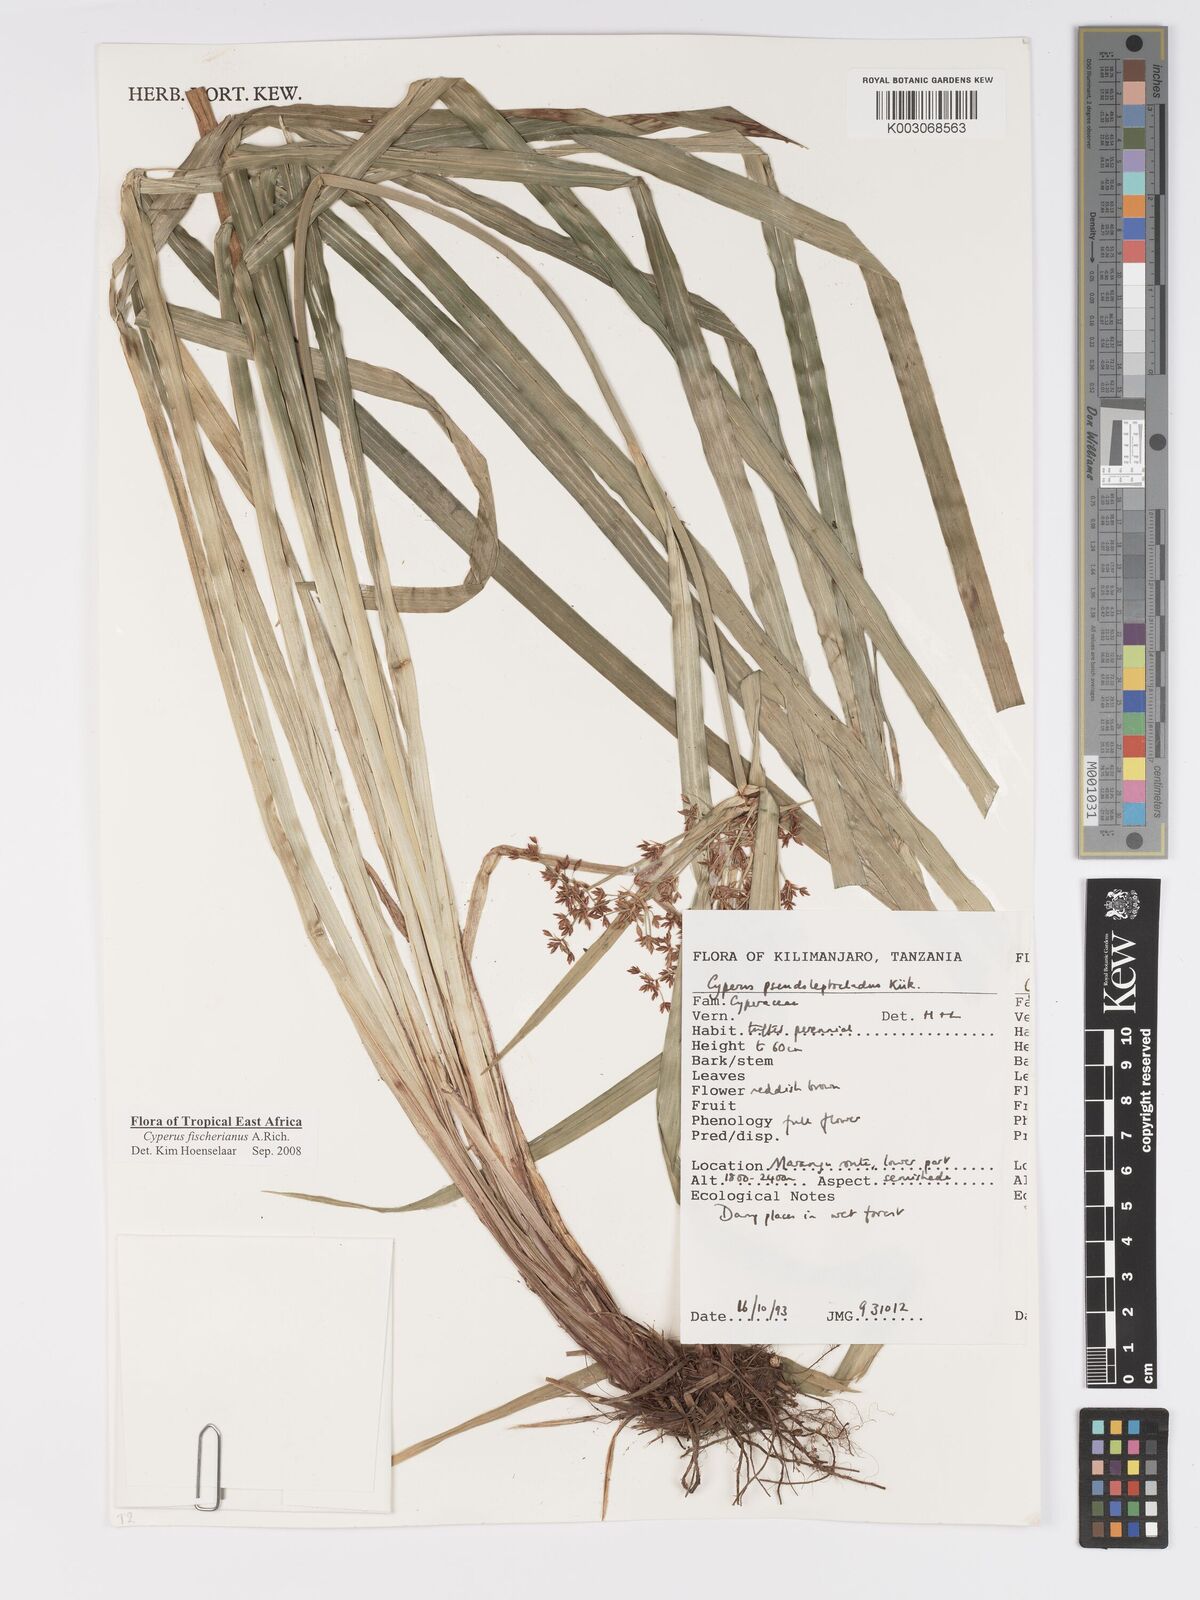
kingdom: Plantae
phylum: Tracheophyta
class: Liliopsida
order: Poales
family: Cyperaceae
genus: Cyperus
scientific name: Cyperus fischerianus
